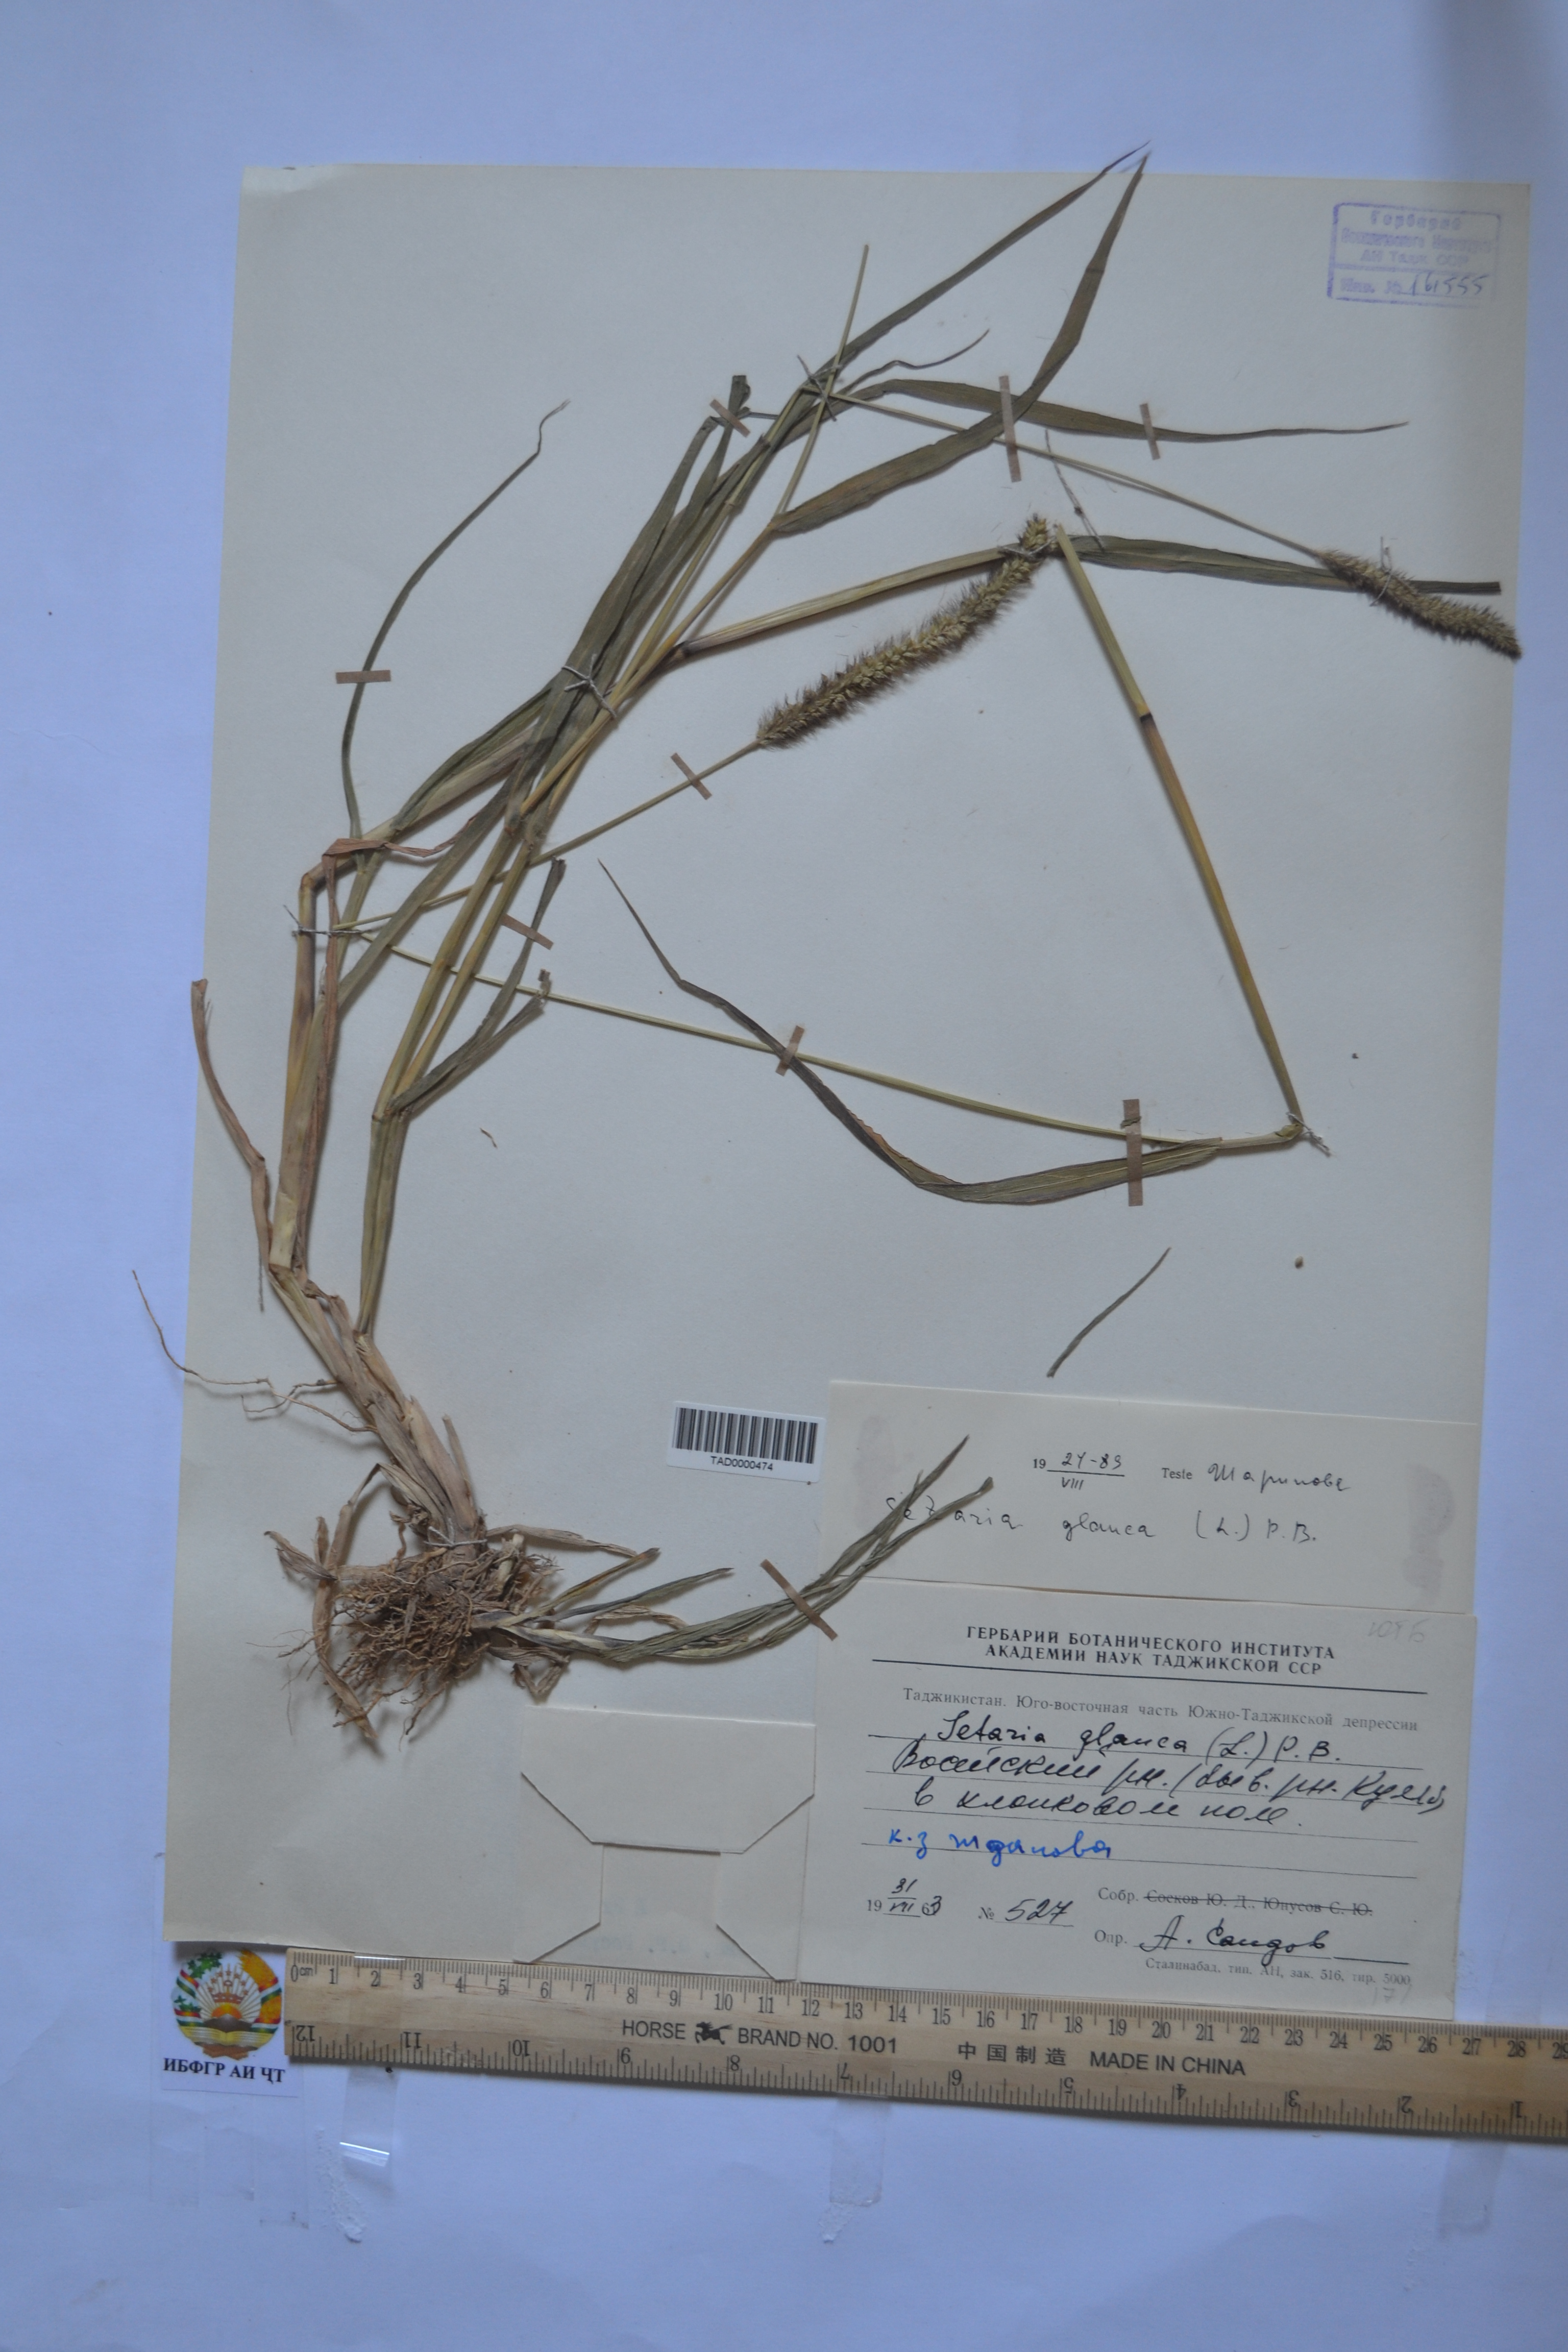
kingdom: Plantae
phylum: Tracheophyta
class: Liliopsida
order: Poales
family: Poaceae
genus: Cenchrus
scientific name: Cenchrus americanus
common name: Pearl millet
